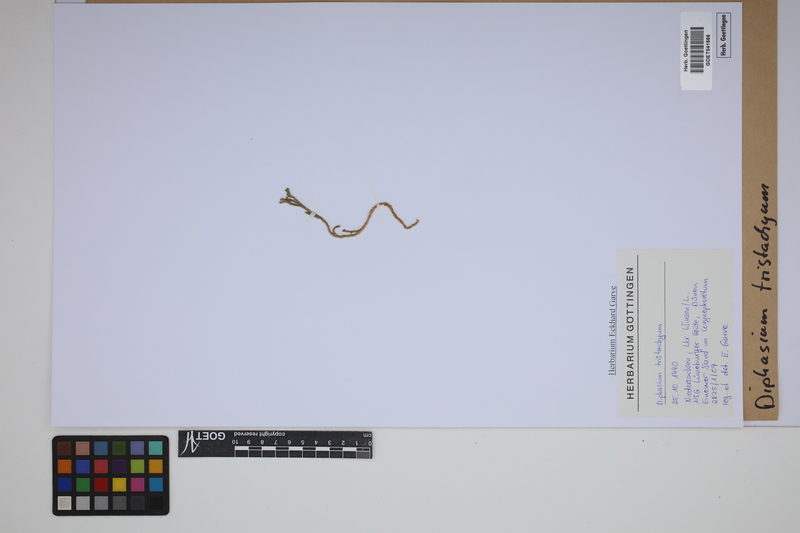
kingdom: Plantae
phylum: Tracheophyta
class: Lycopodiopsida
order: Lycopodiales
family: Lycopodiaceae
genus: Diphasiastrum
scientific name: Diphasiastrum tristachyum
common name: Blue ground-cedar
